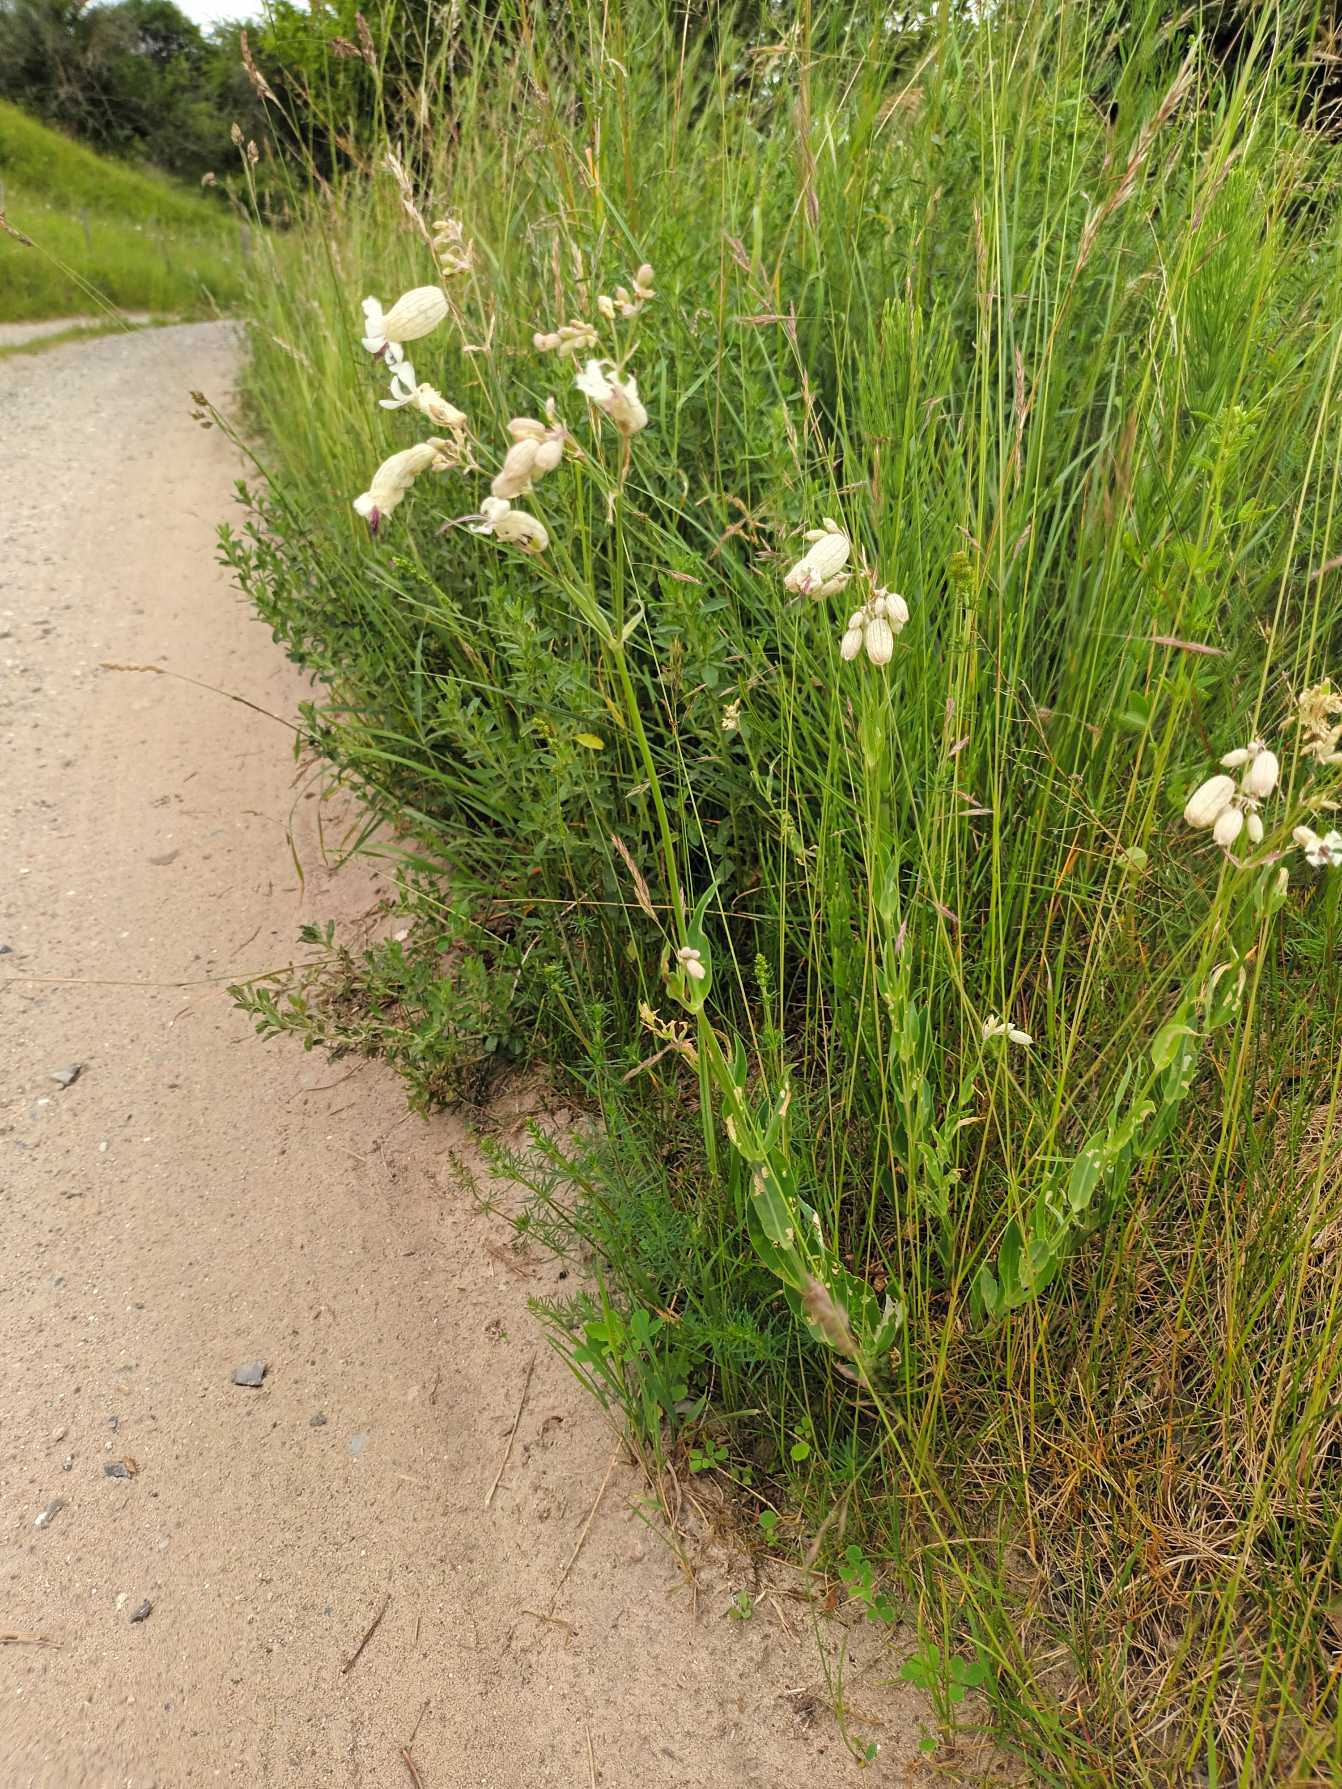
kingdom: Plantae
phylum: Tracheophyta
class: Magnoliopsida
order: Caryophyllales
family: Caryophyllaceae
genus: Silene
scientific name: Silene vulgaris
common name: Blæresmælde
